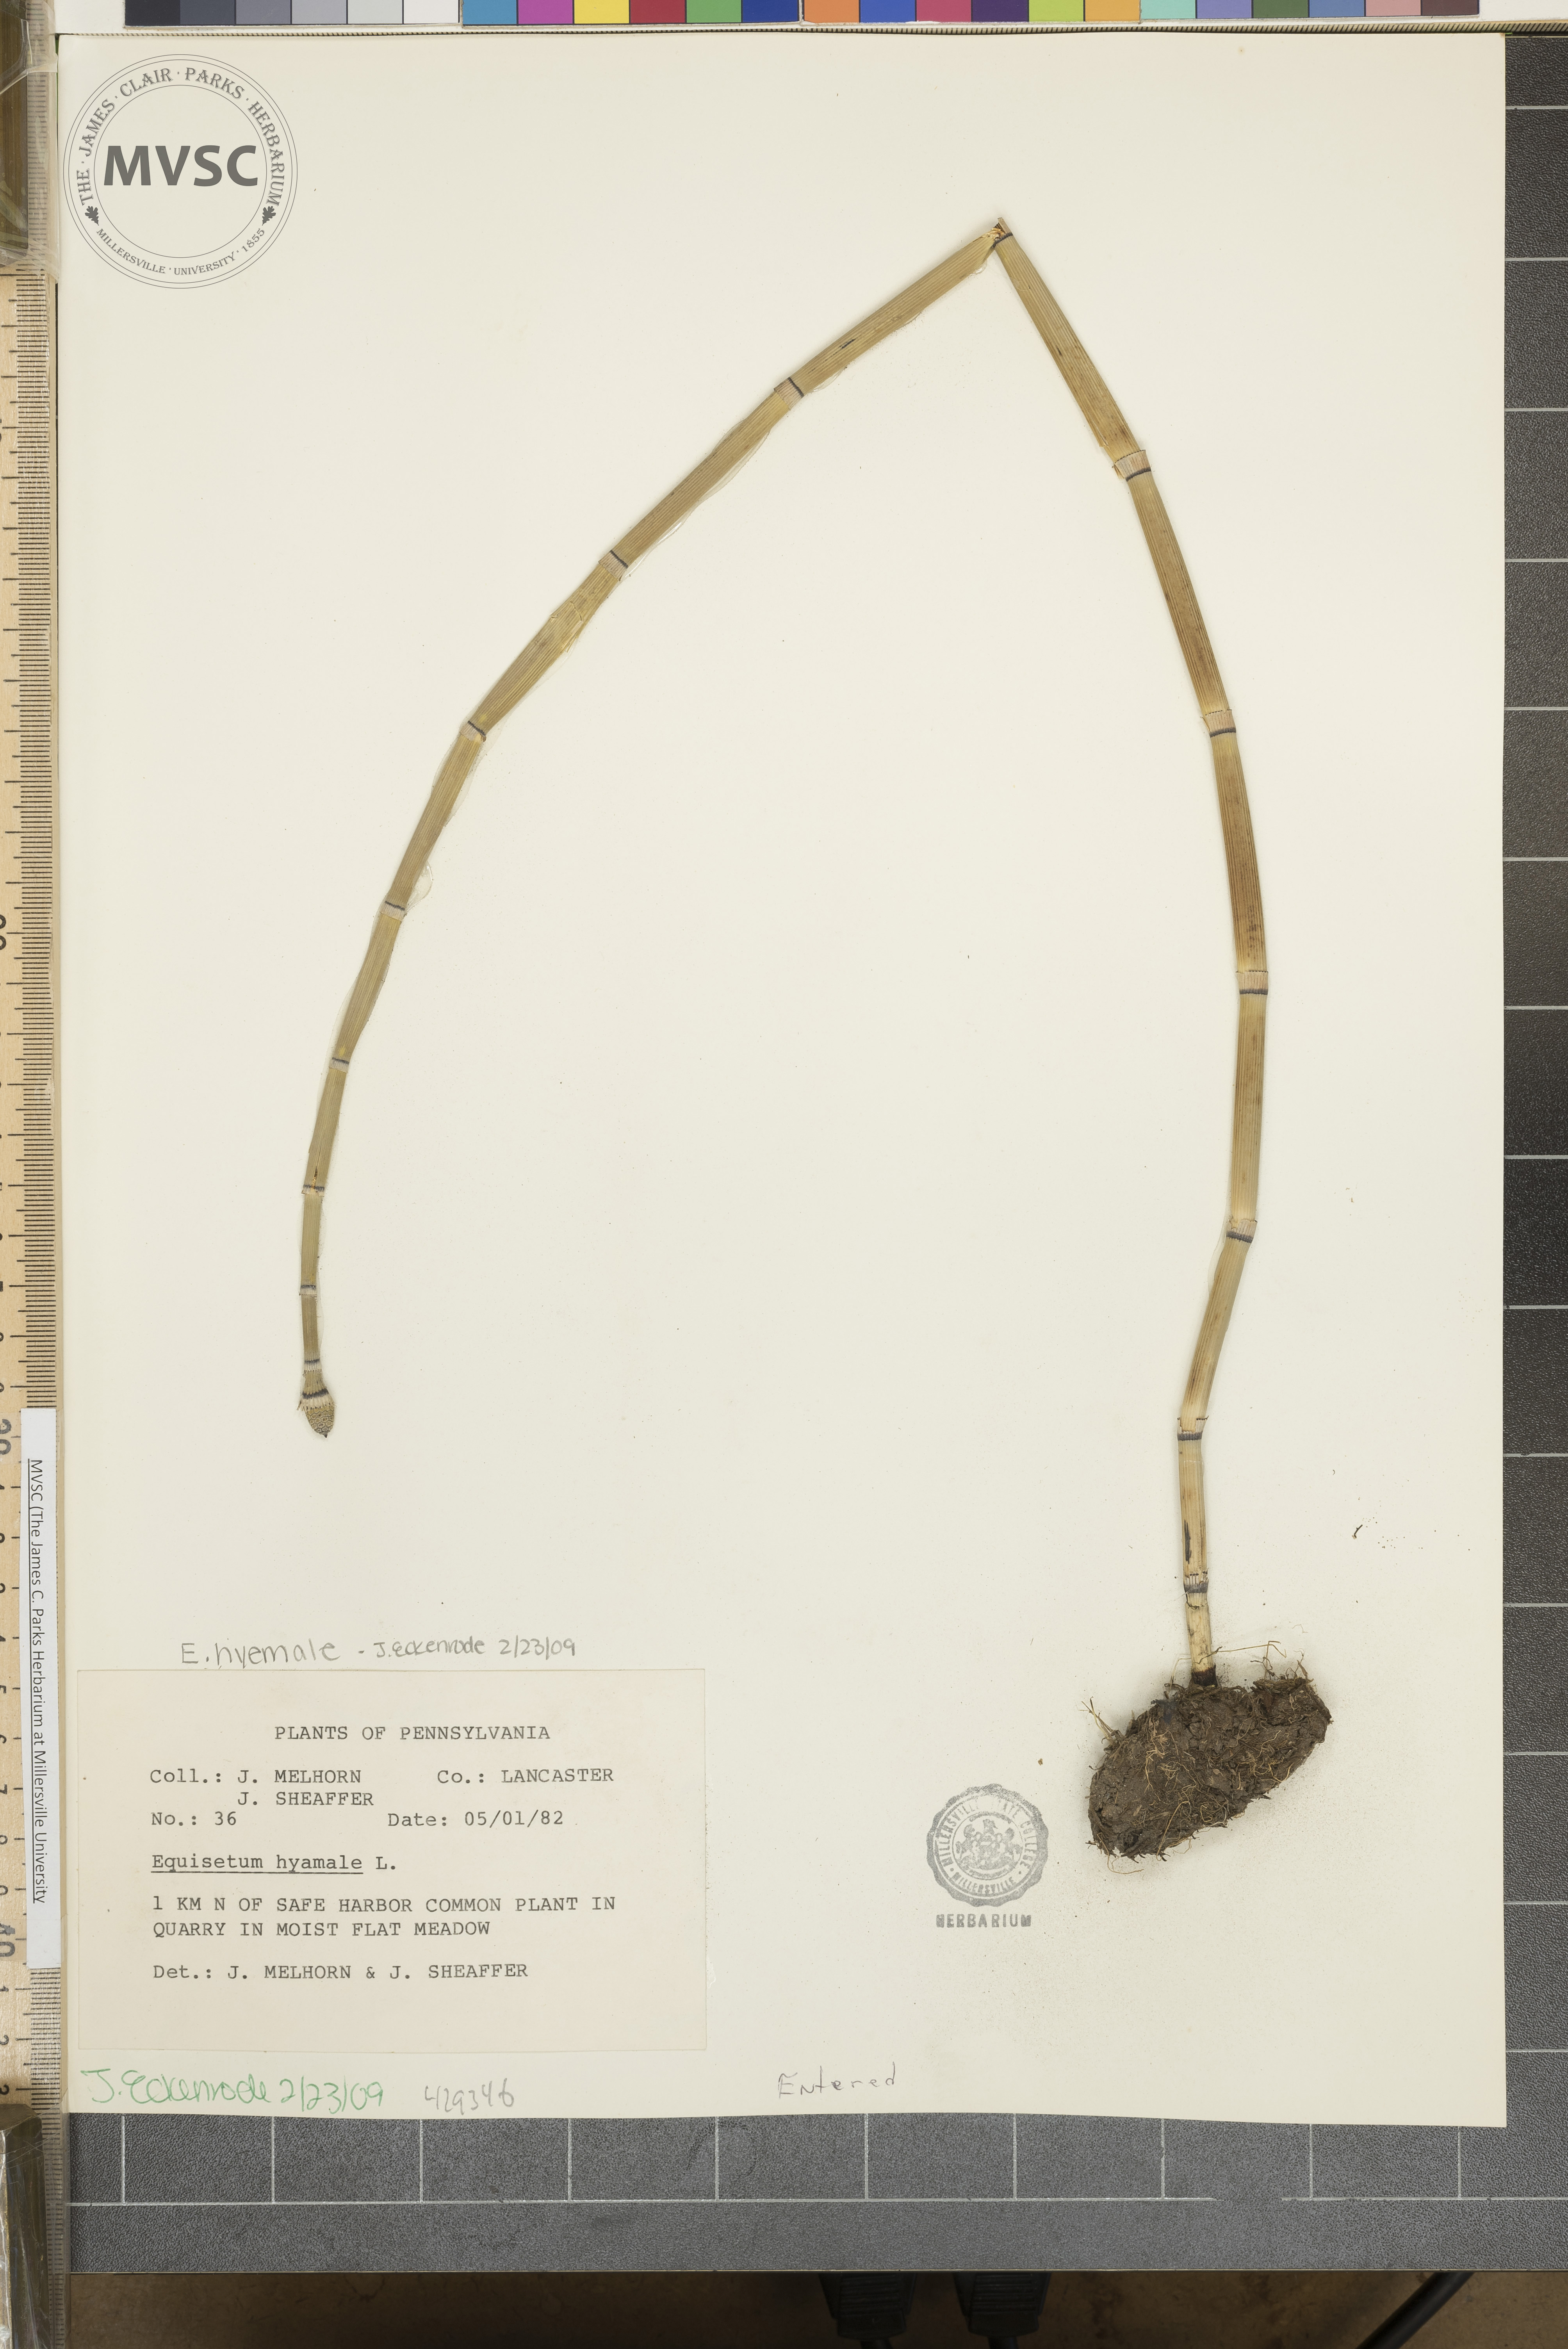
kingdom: Plantae
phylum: Tracheophyta
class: Polypodiopsida
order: Equisetales
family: Equisetaceae
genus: Equisetum
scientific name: Equisetum hyemale
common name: Rough horsetail
